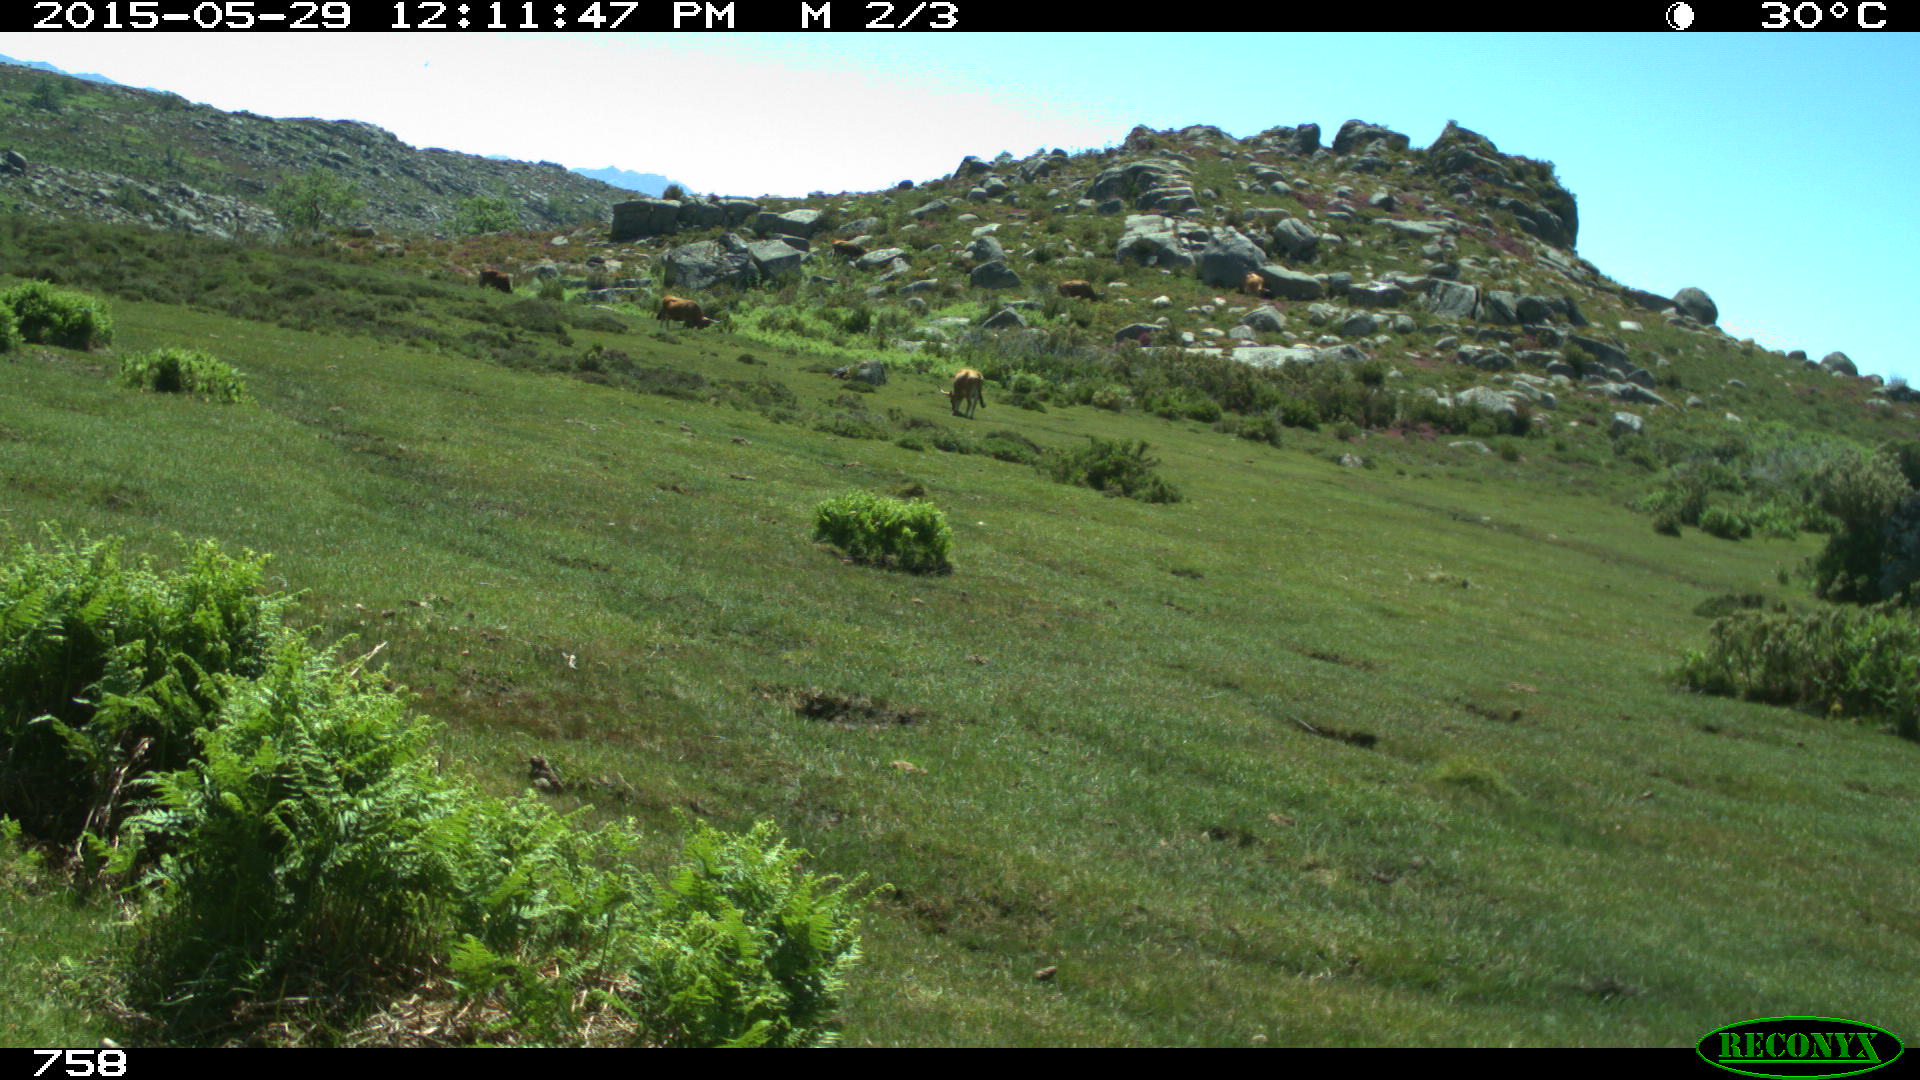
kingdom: Animalia
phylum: Chordata
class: Mammalia
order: Artiodactyla
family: Bovidae
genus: Bos
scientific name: Bos taurus
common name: Domesticated cattle
